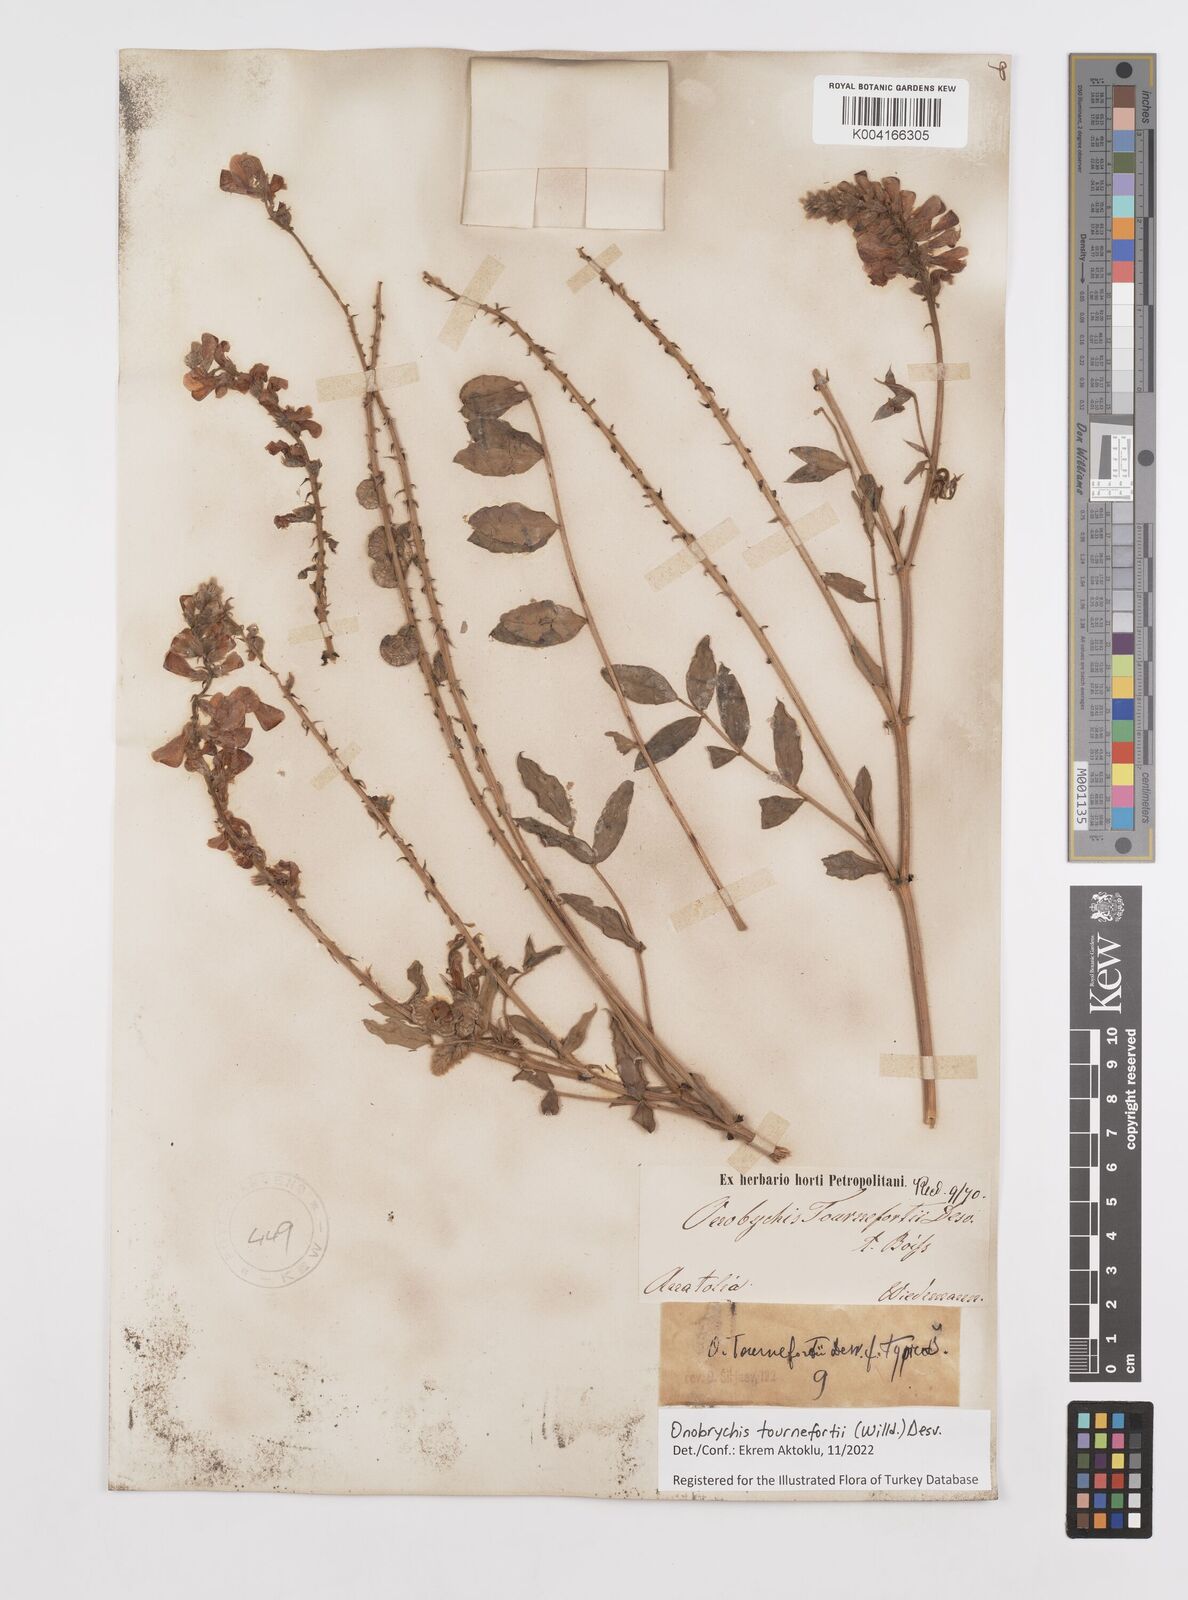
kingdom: Plantae
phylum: Tracheophyta
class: Magnoliopsida
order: Fabales
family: Fabaceae
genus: Onobrychis
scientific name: Onobrychis tournefortii
